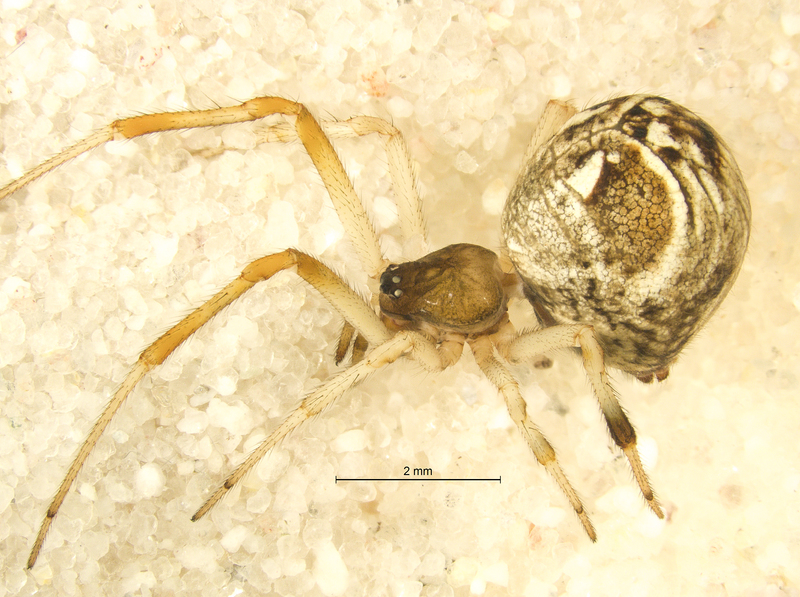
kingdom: Animalia
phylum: Arthropoda
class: Arachnida
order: Araneae
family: Theridiidae
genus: Parasteatoda
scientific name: Parasteatoda lunata
